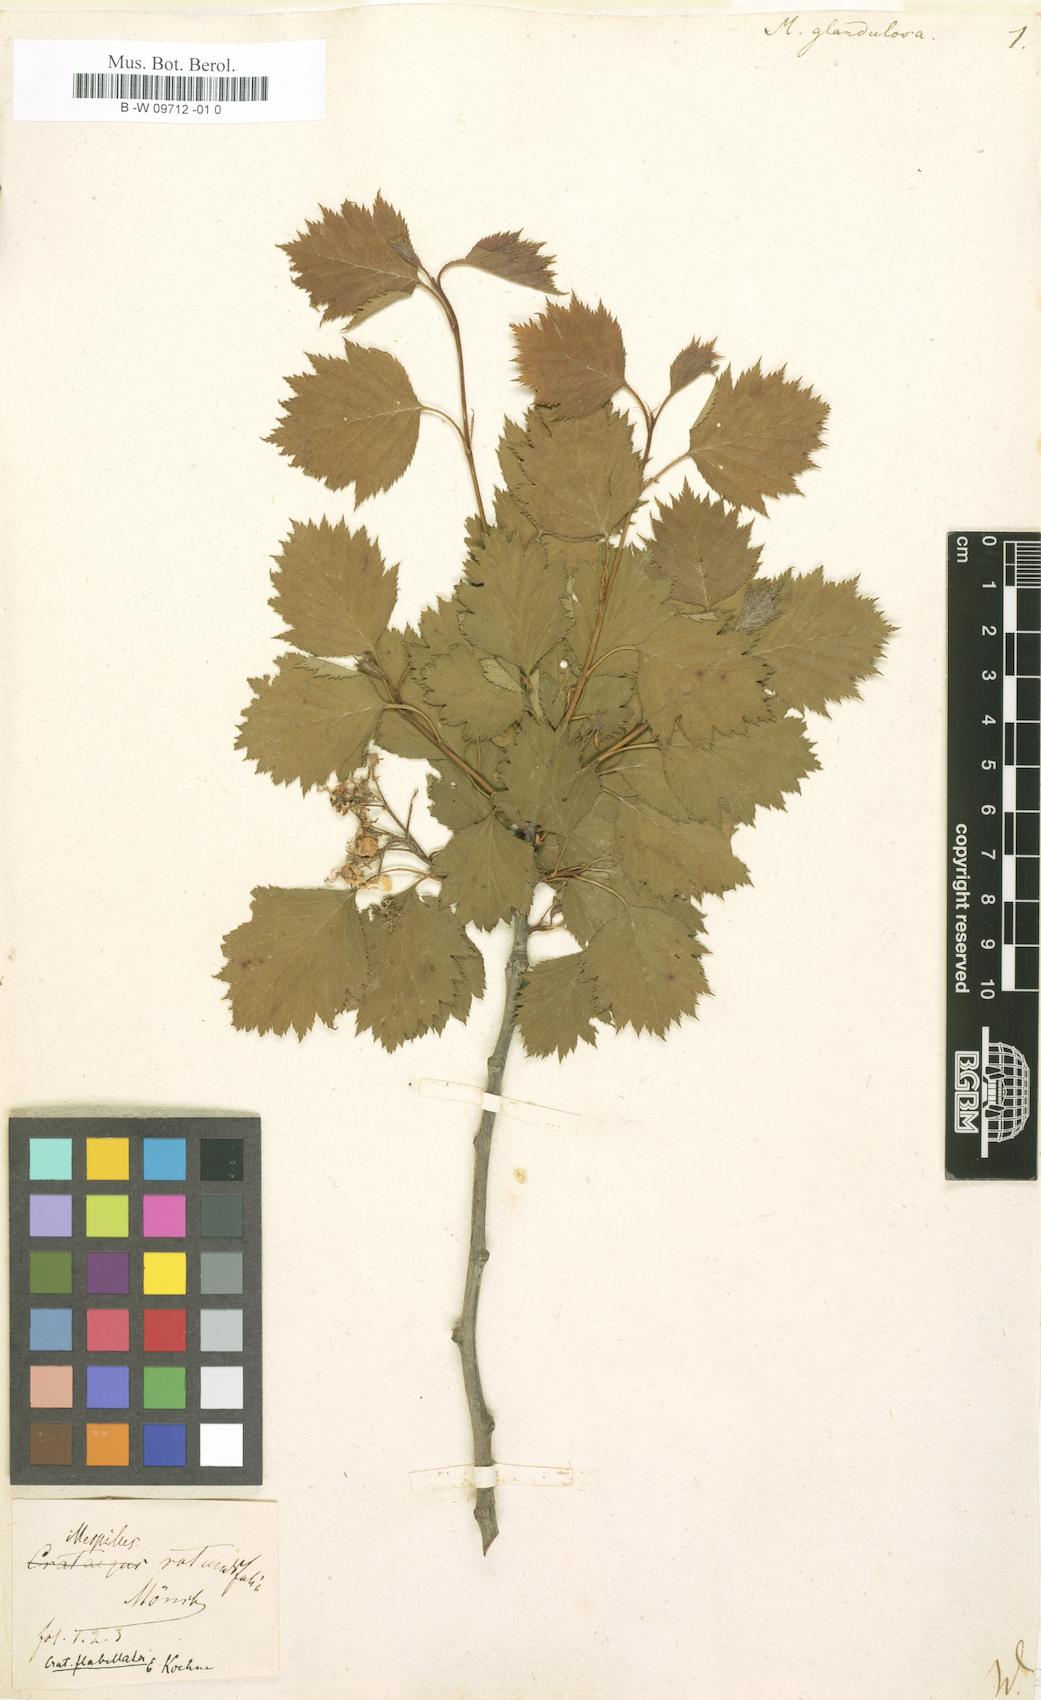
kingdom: Plantae
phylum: Tracheophyta
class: Magnoliopsida
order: Rosales
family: Rosaceae
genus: Crataegus
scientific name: Crataegus
